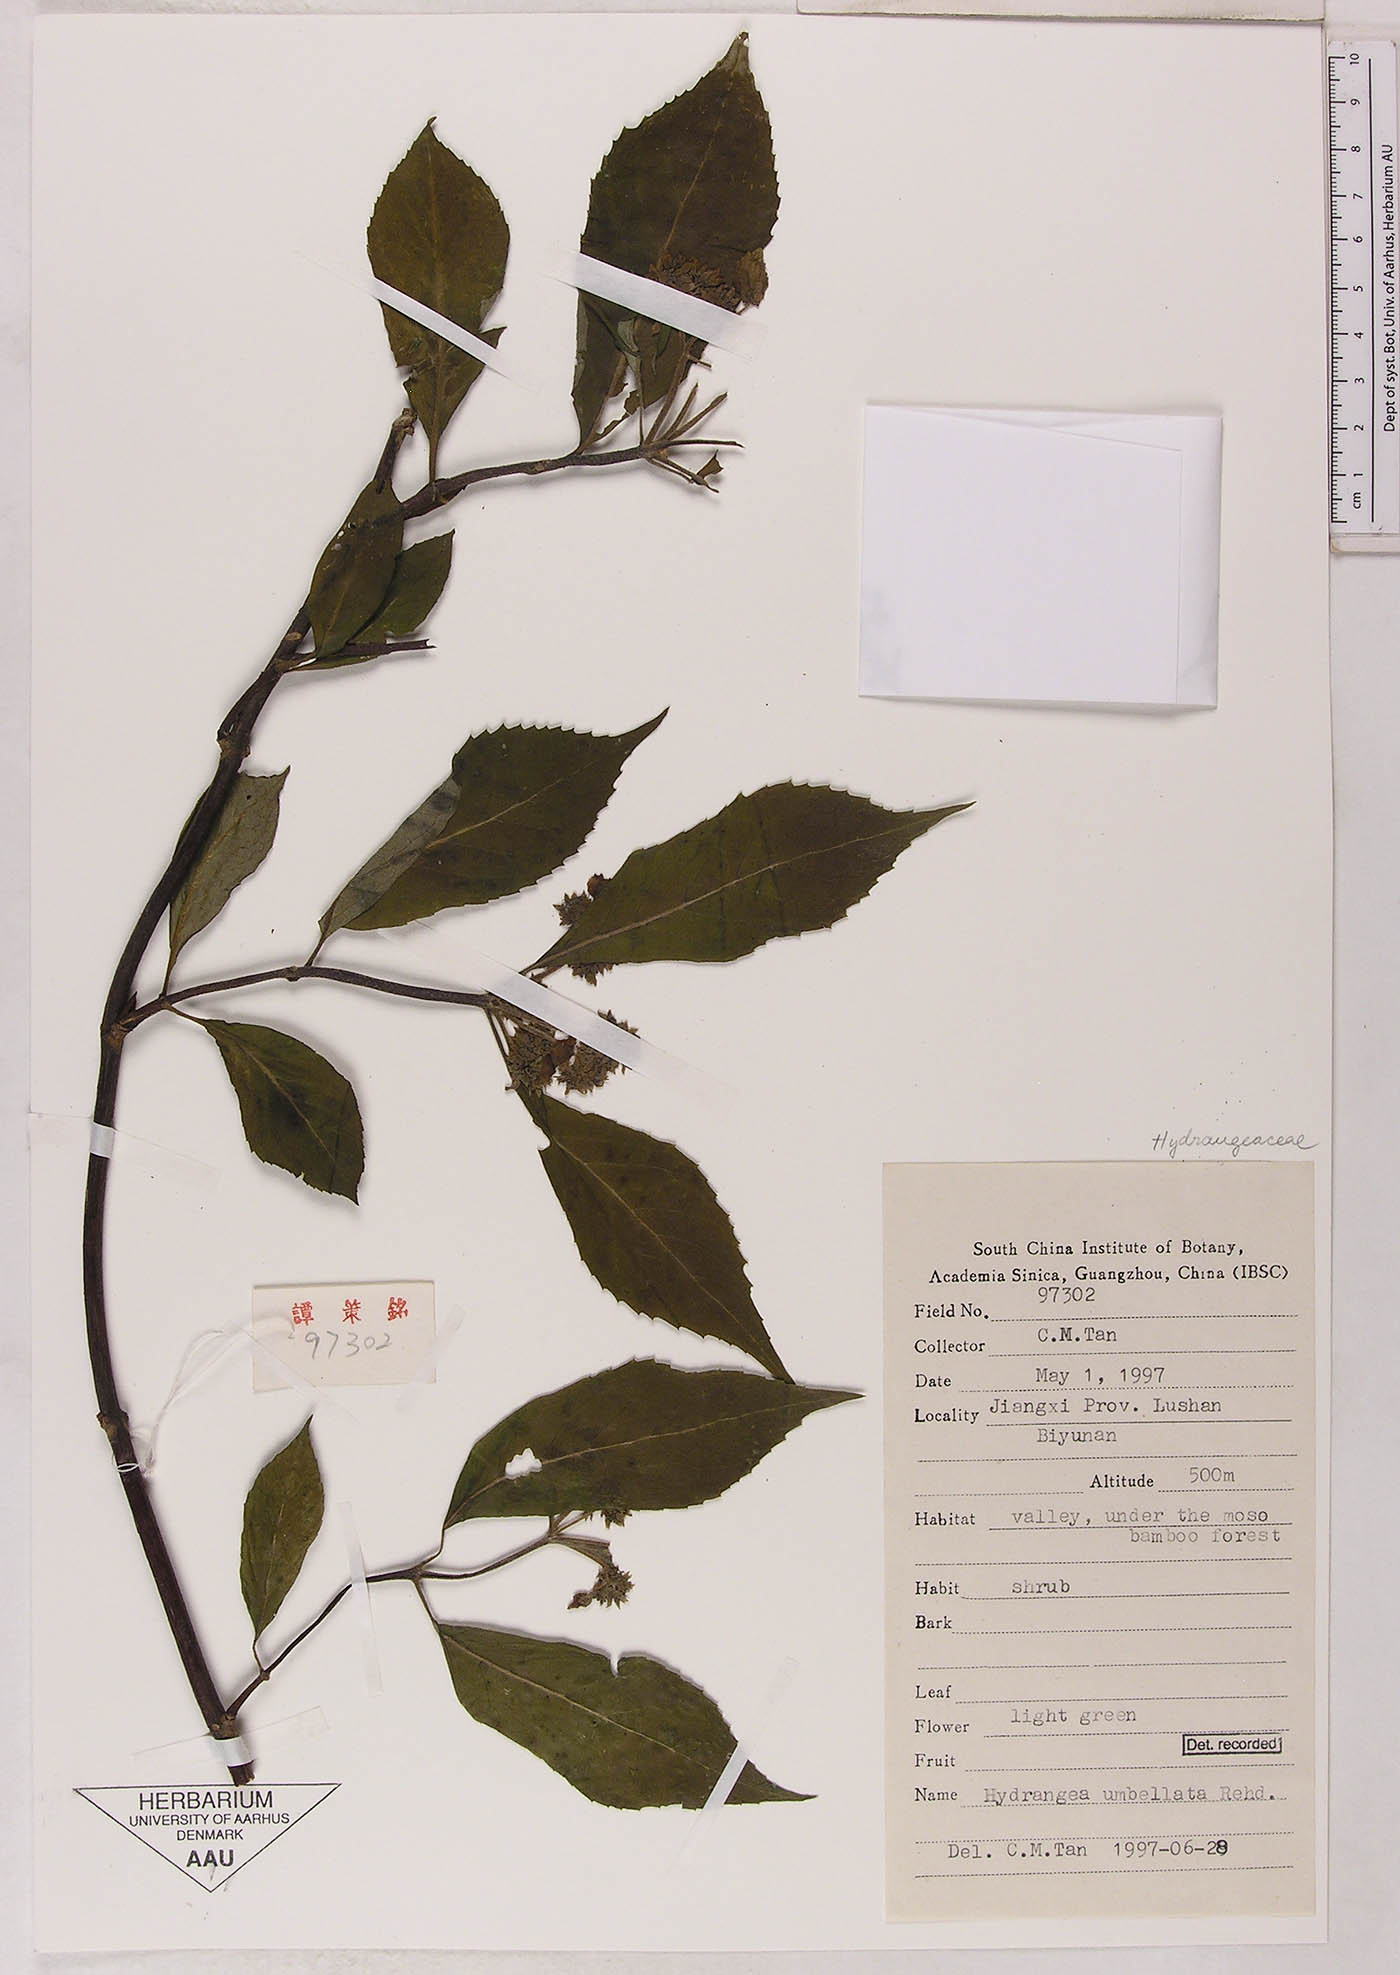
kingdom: Plantae
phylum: Tracheophyta
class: Magnoliopsida
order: Cornales
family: Hydrangeaceae
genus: Hydrangea
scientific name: Hydrangea
